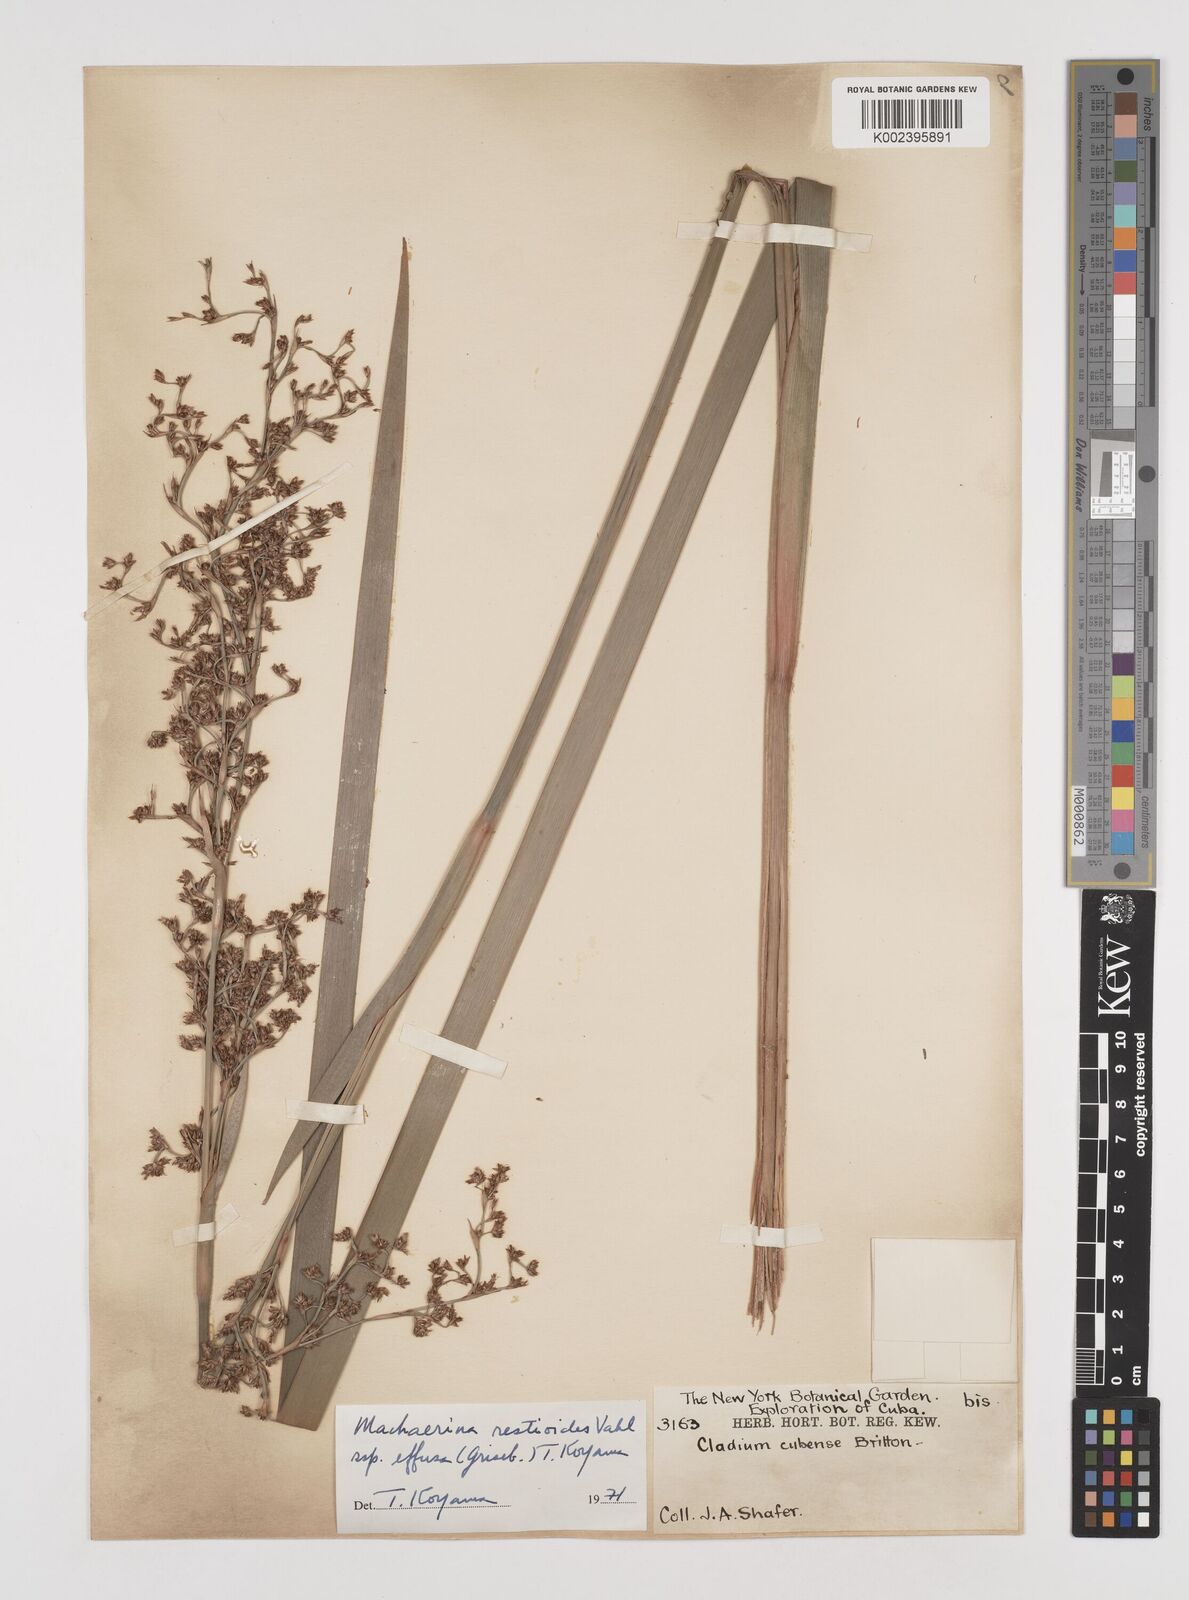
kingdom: Plantae
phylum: Tracheophyta
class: Liliopsida
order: Poales
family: Cyperaceae
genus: Machaerina
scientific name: Machaerina cubensis
